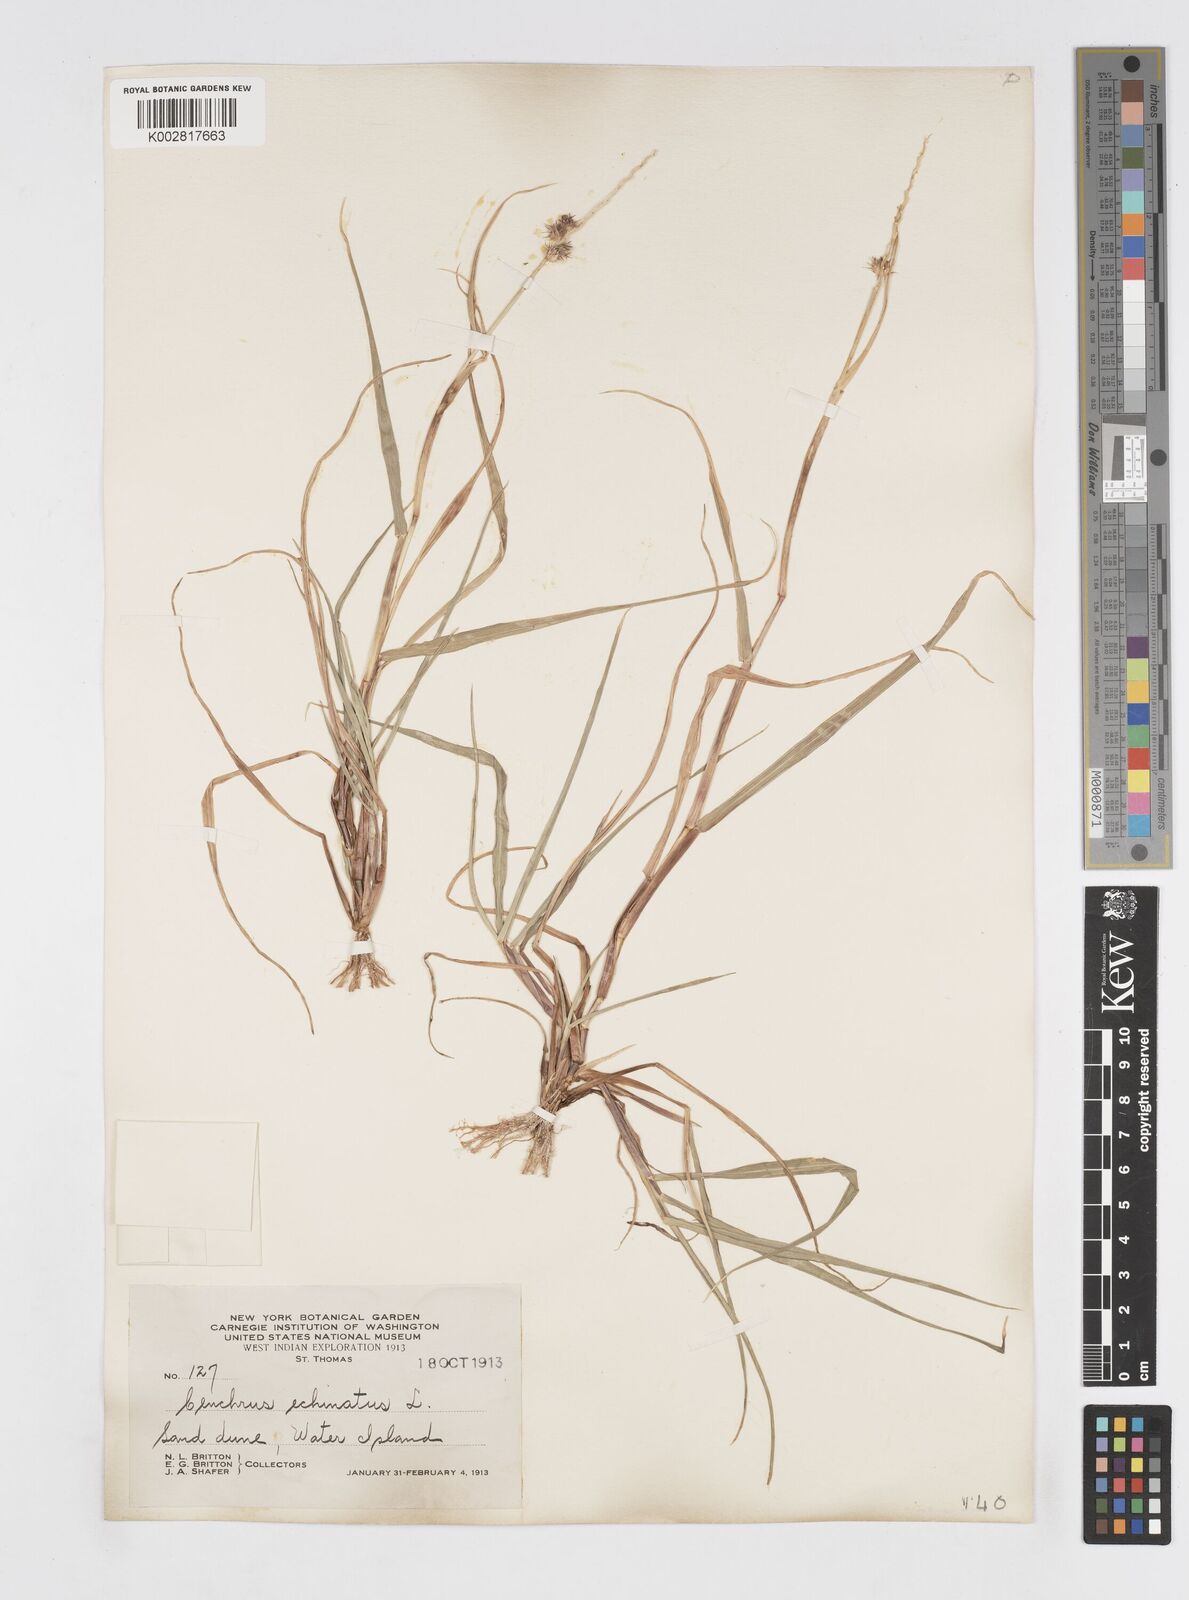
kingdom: Plantae
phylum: Tracheophyta
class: Liliopsida
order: Poales
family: Poaceae
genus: Cenchrus
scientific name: Cenchrus
